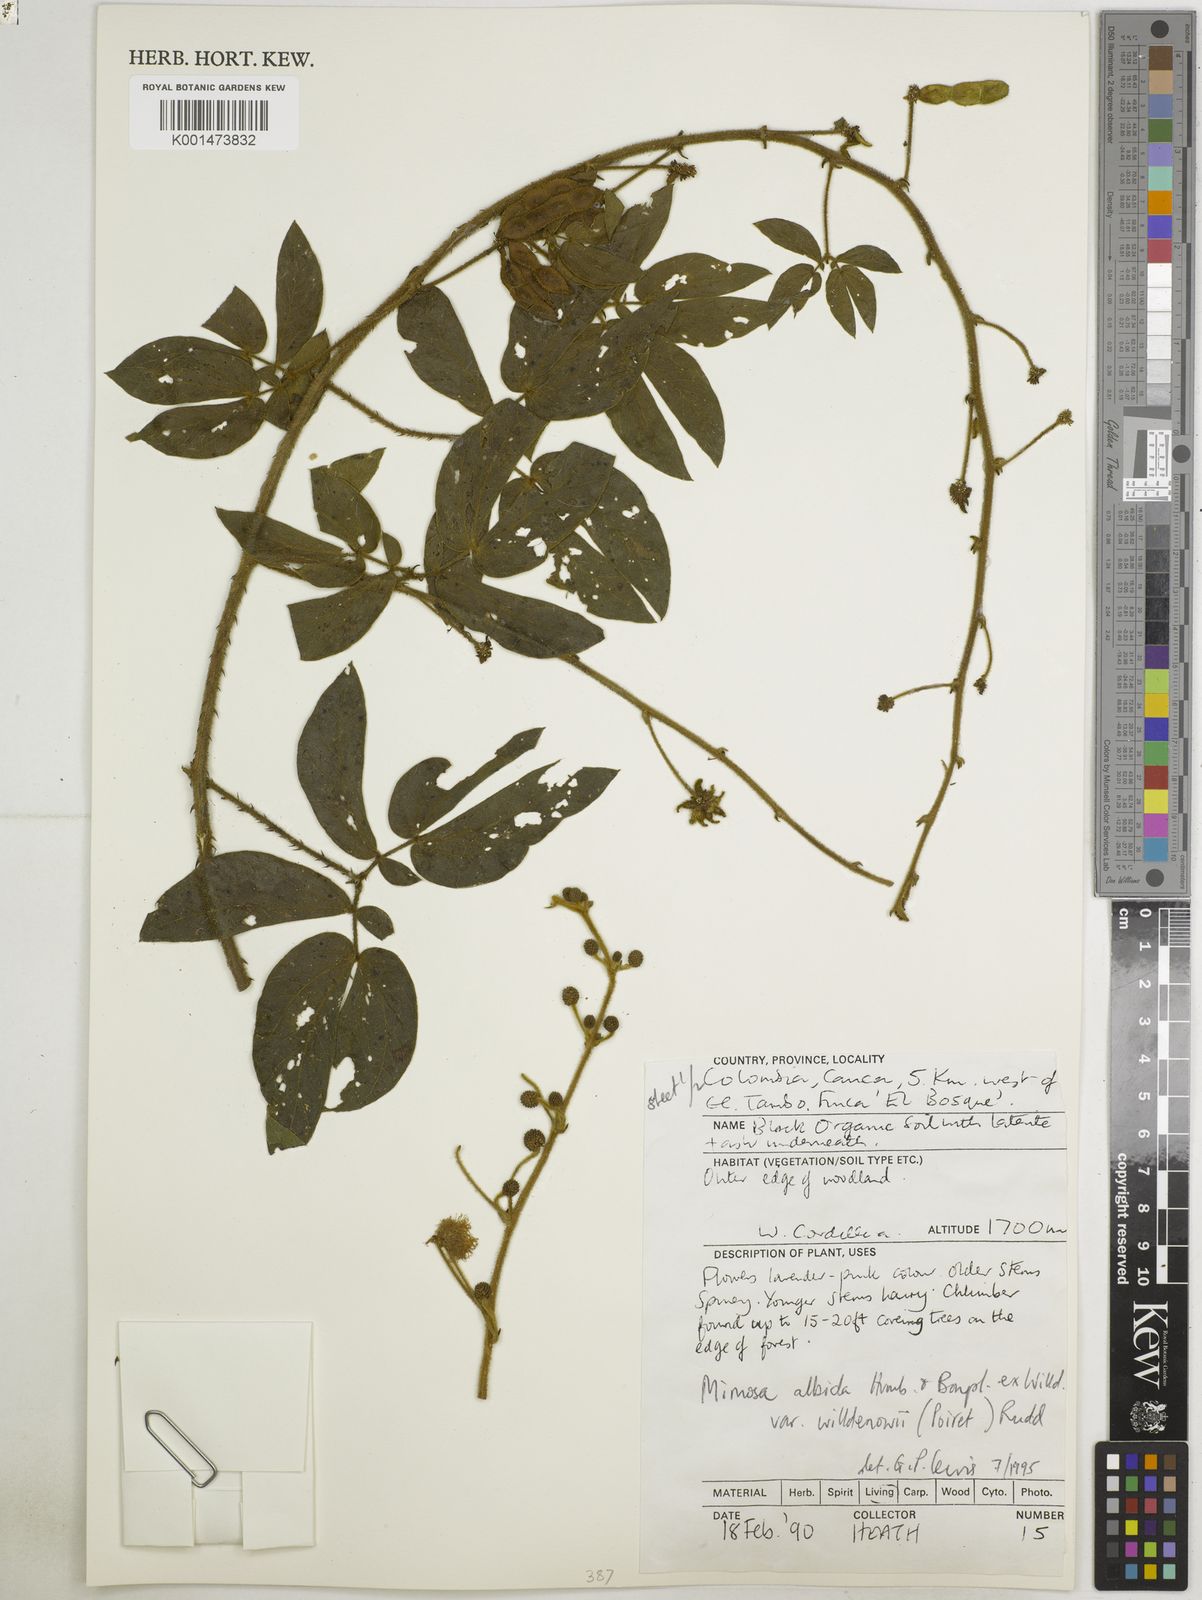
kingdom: Plantae
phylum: Tracheophyta
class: Magnoliopsida
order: Fabales
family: Fabaceae
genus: Mimosa
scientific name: Mimosa albida
